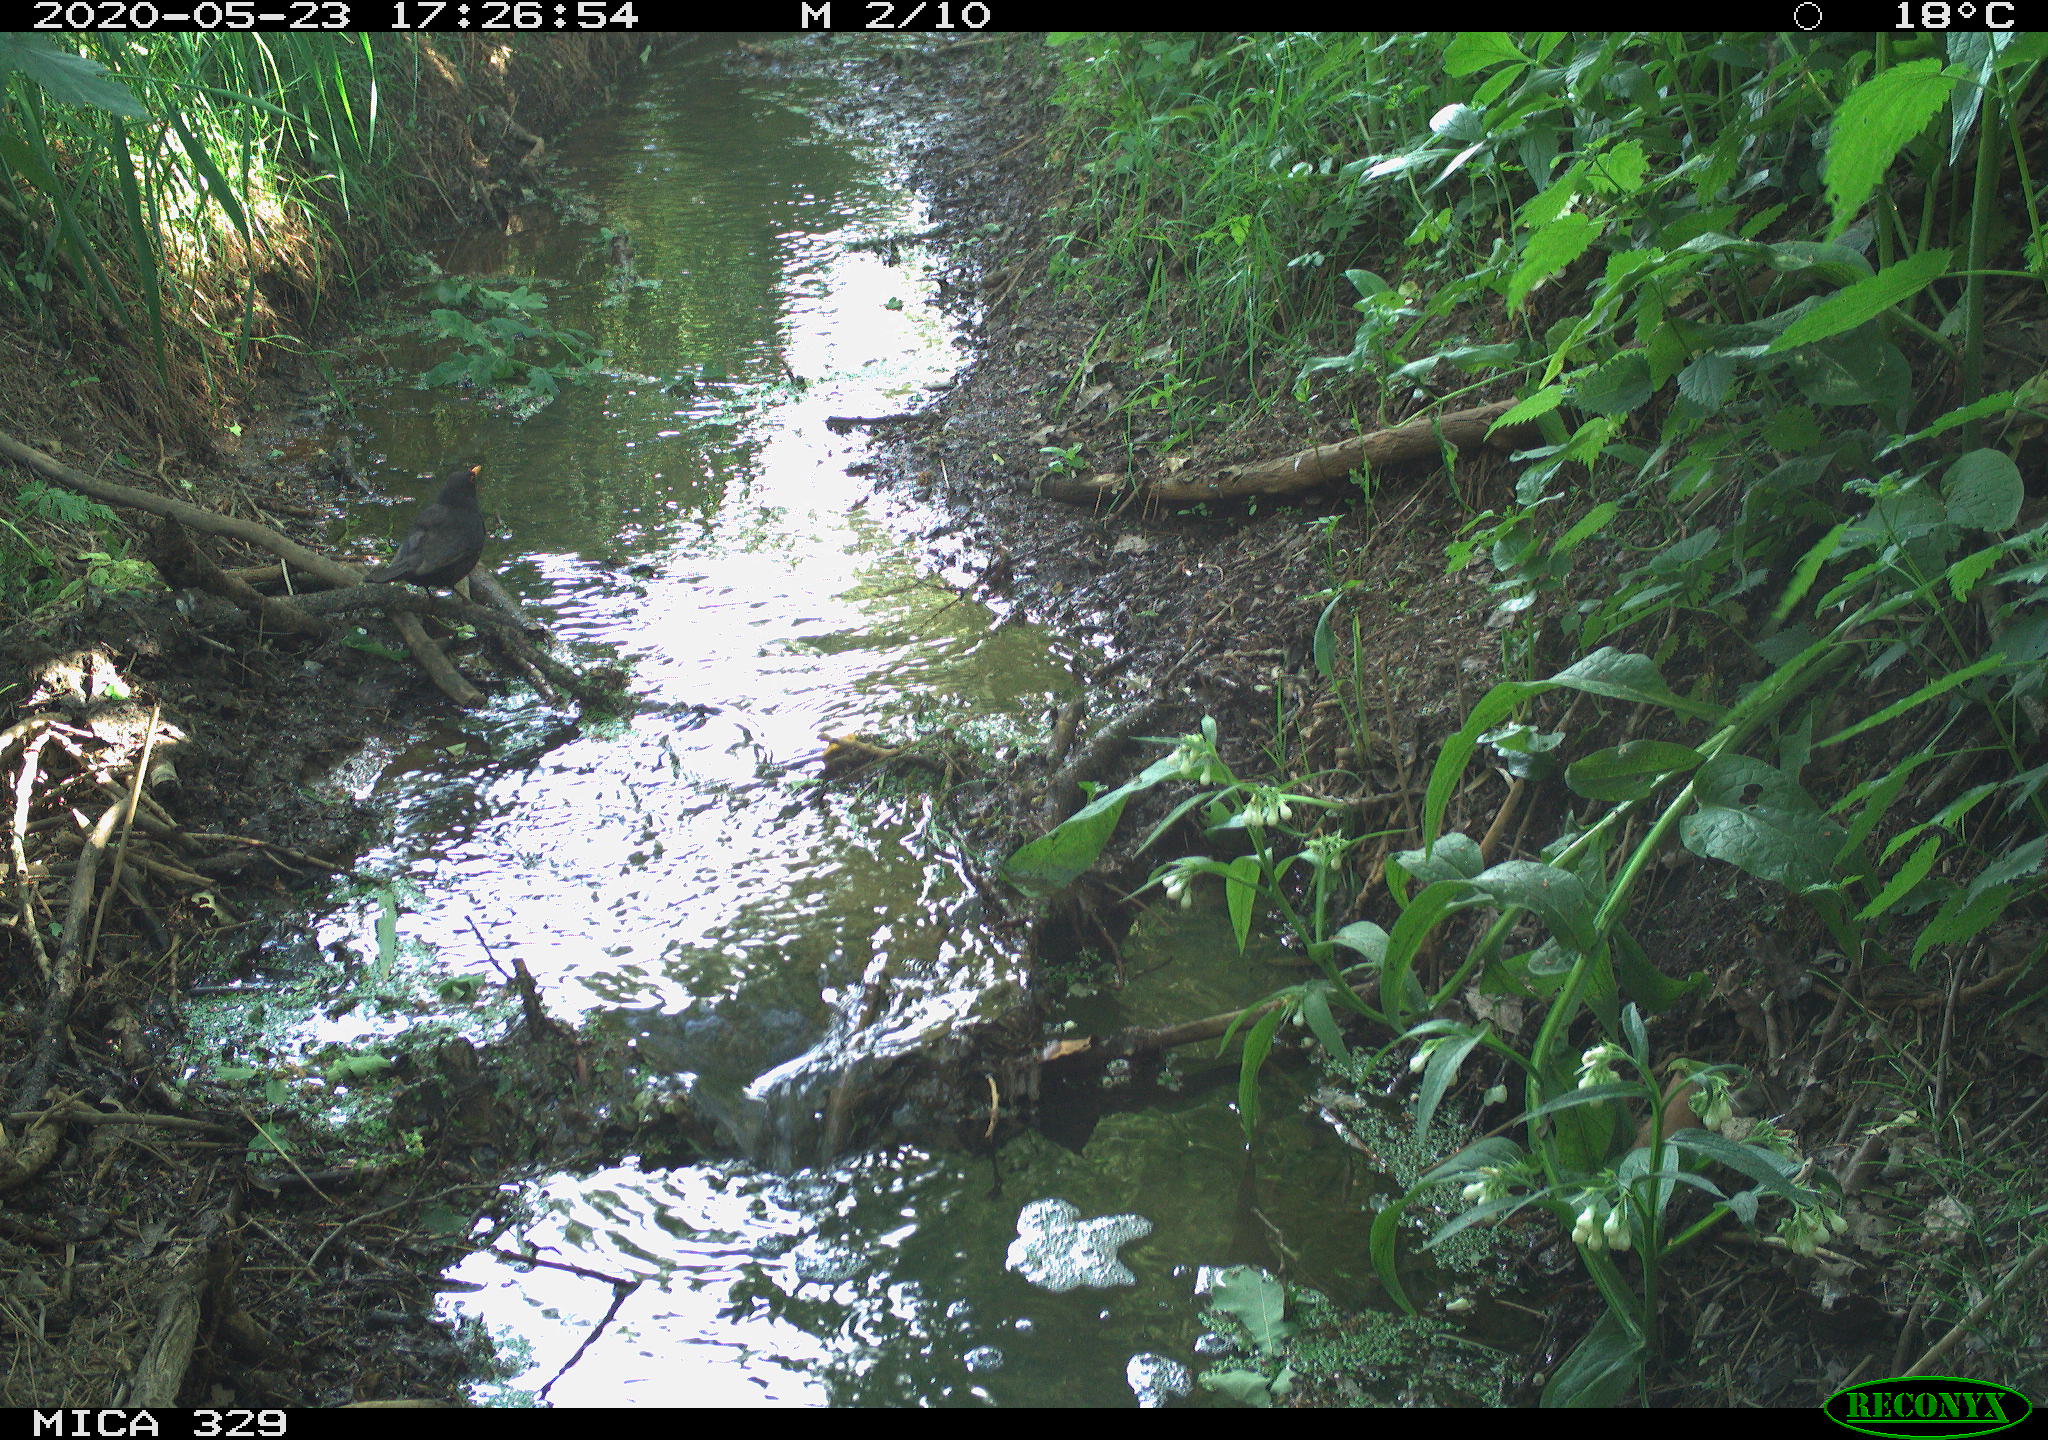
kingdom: Animalia
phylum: Chordata
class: Aves
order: Passeriformes
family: Turdidae
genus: Turdus
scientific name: Turdus merula
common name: Common blackbird
